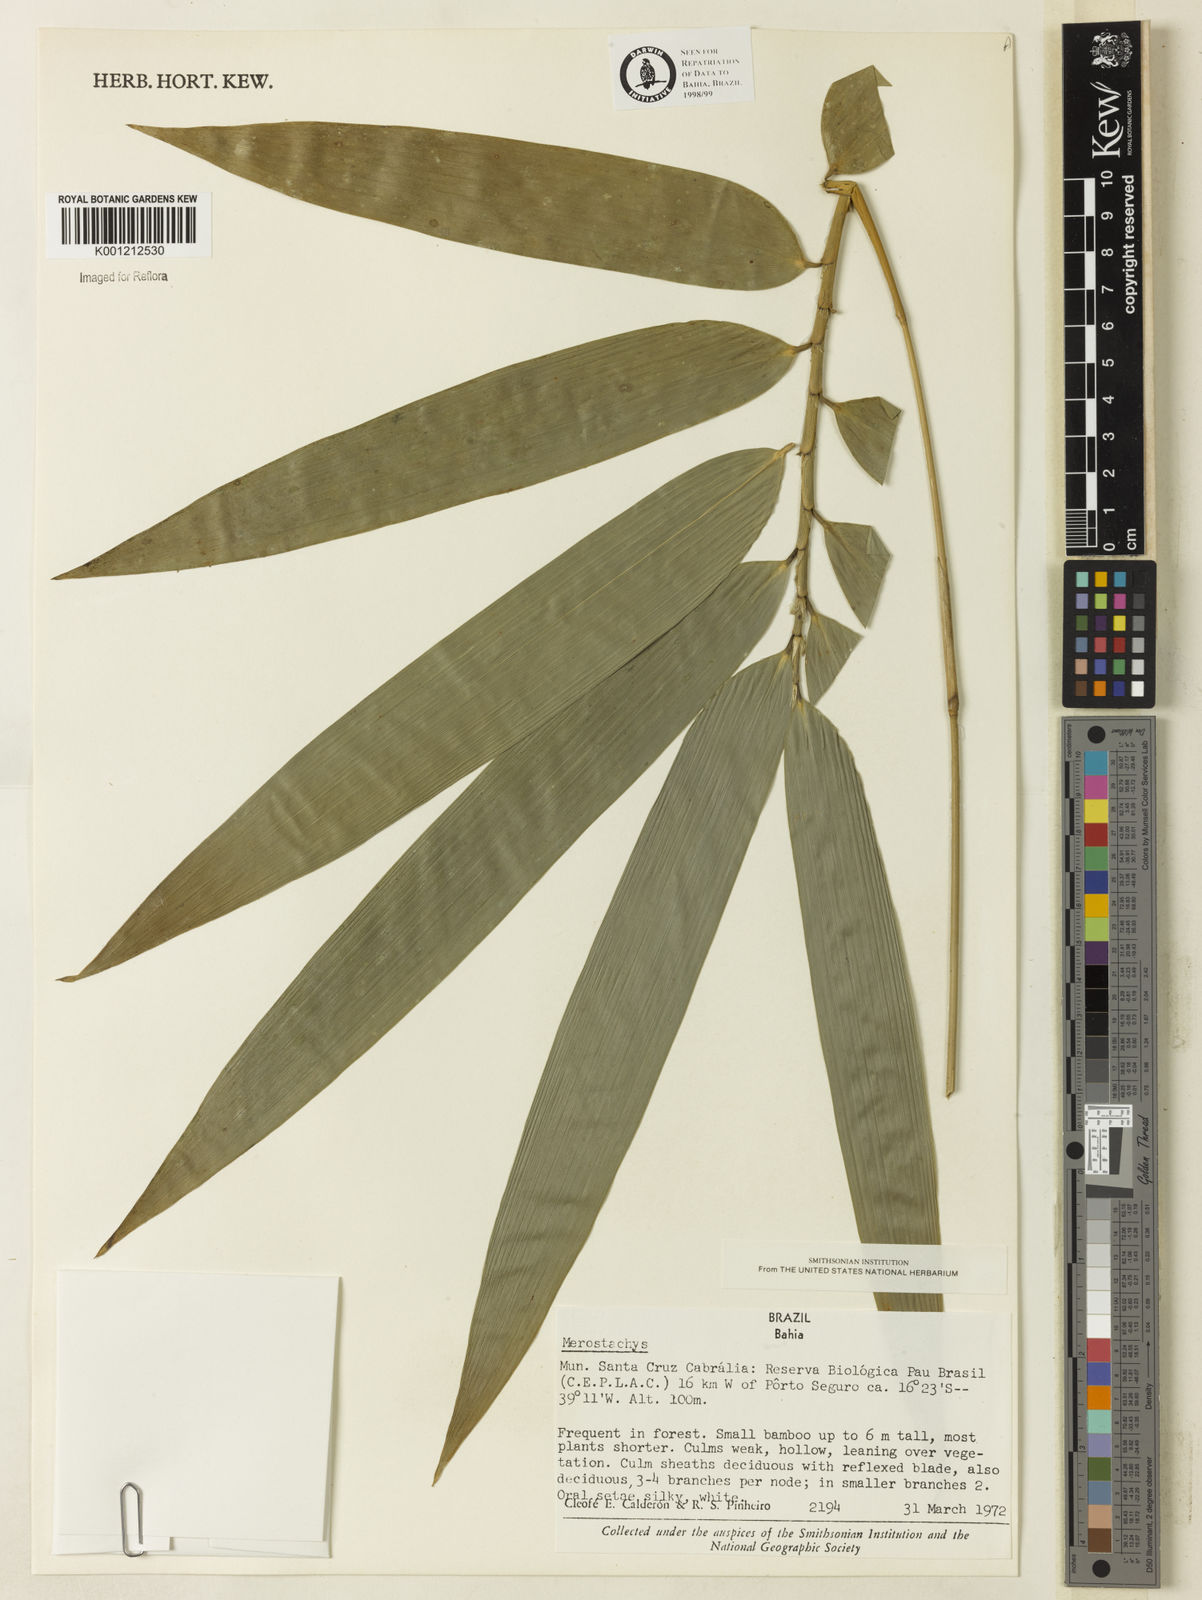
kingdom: Plantae
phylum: Tracheophyta
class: Liliopsida
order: Poales
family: Poaceae
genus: Merostachys
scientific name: Merostachys procerrima
